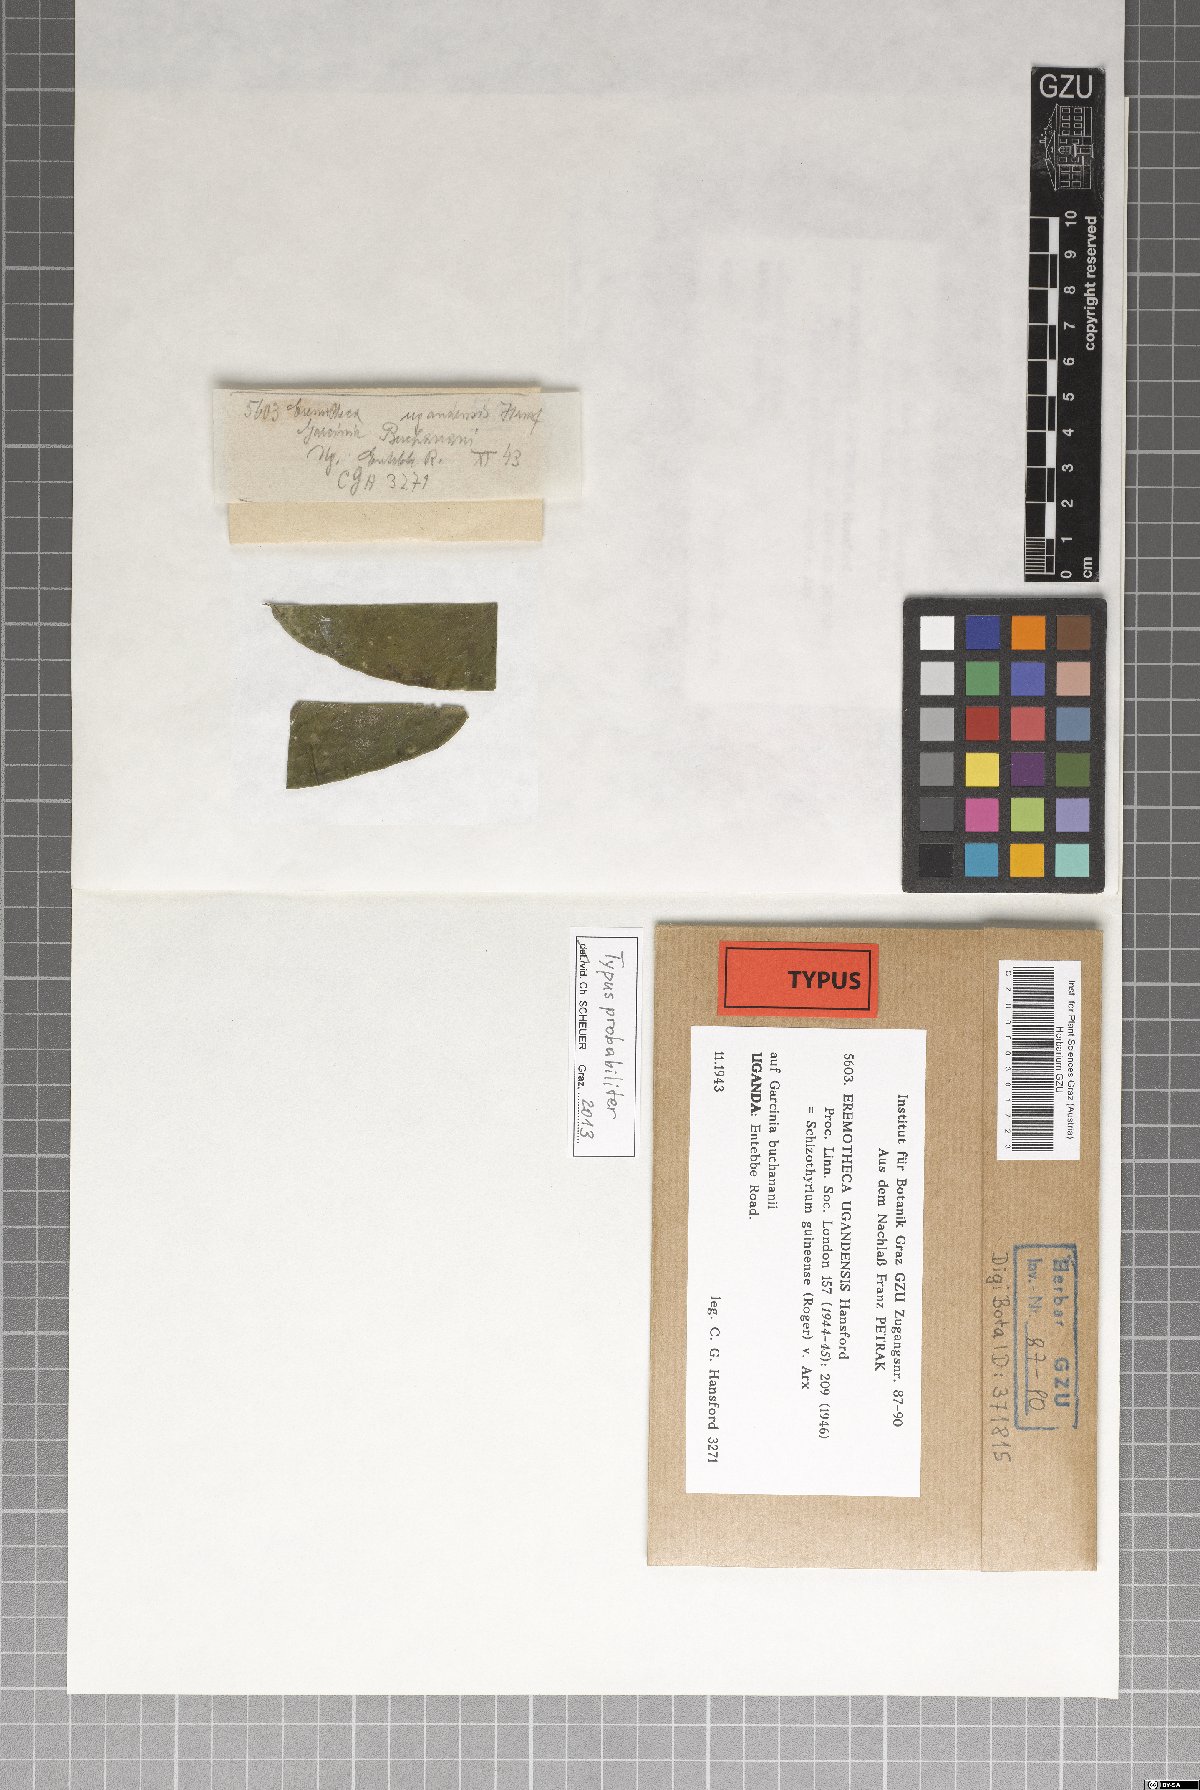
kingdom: Fungi
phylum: Ascomycota
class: Dothideomycetes
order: Mycosphaerellales
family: Schizothyriaceae
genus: Eremotheca
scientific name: Eremotheca ugandensis
